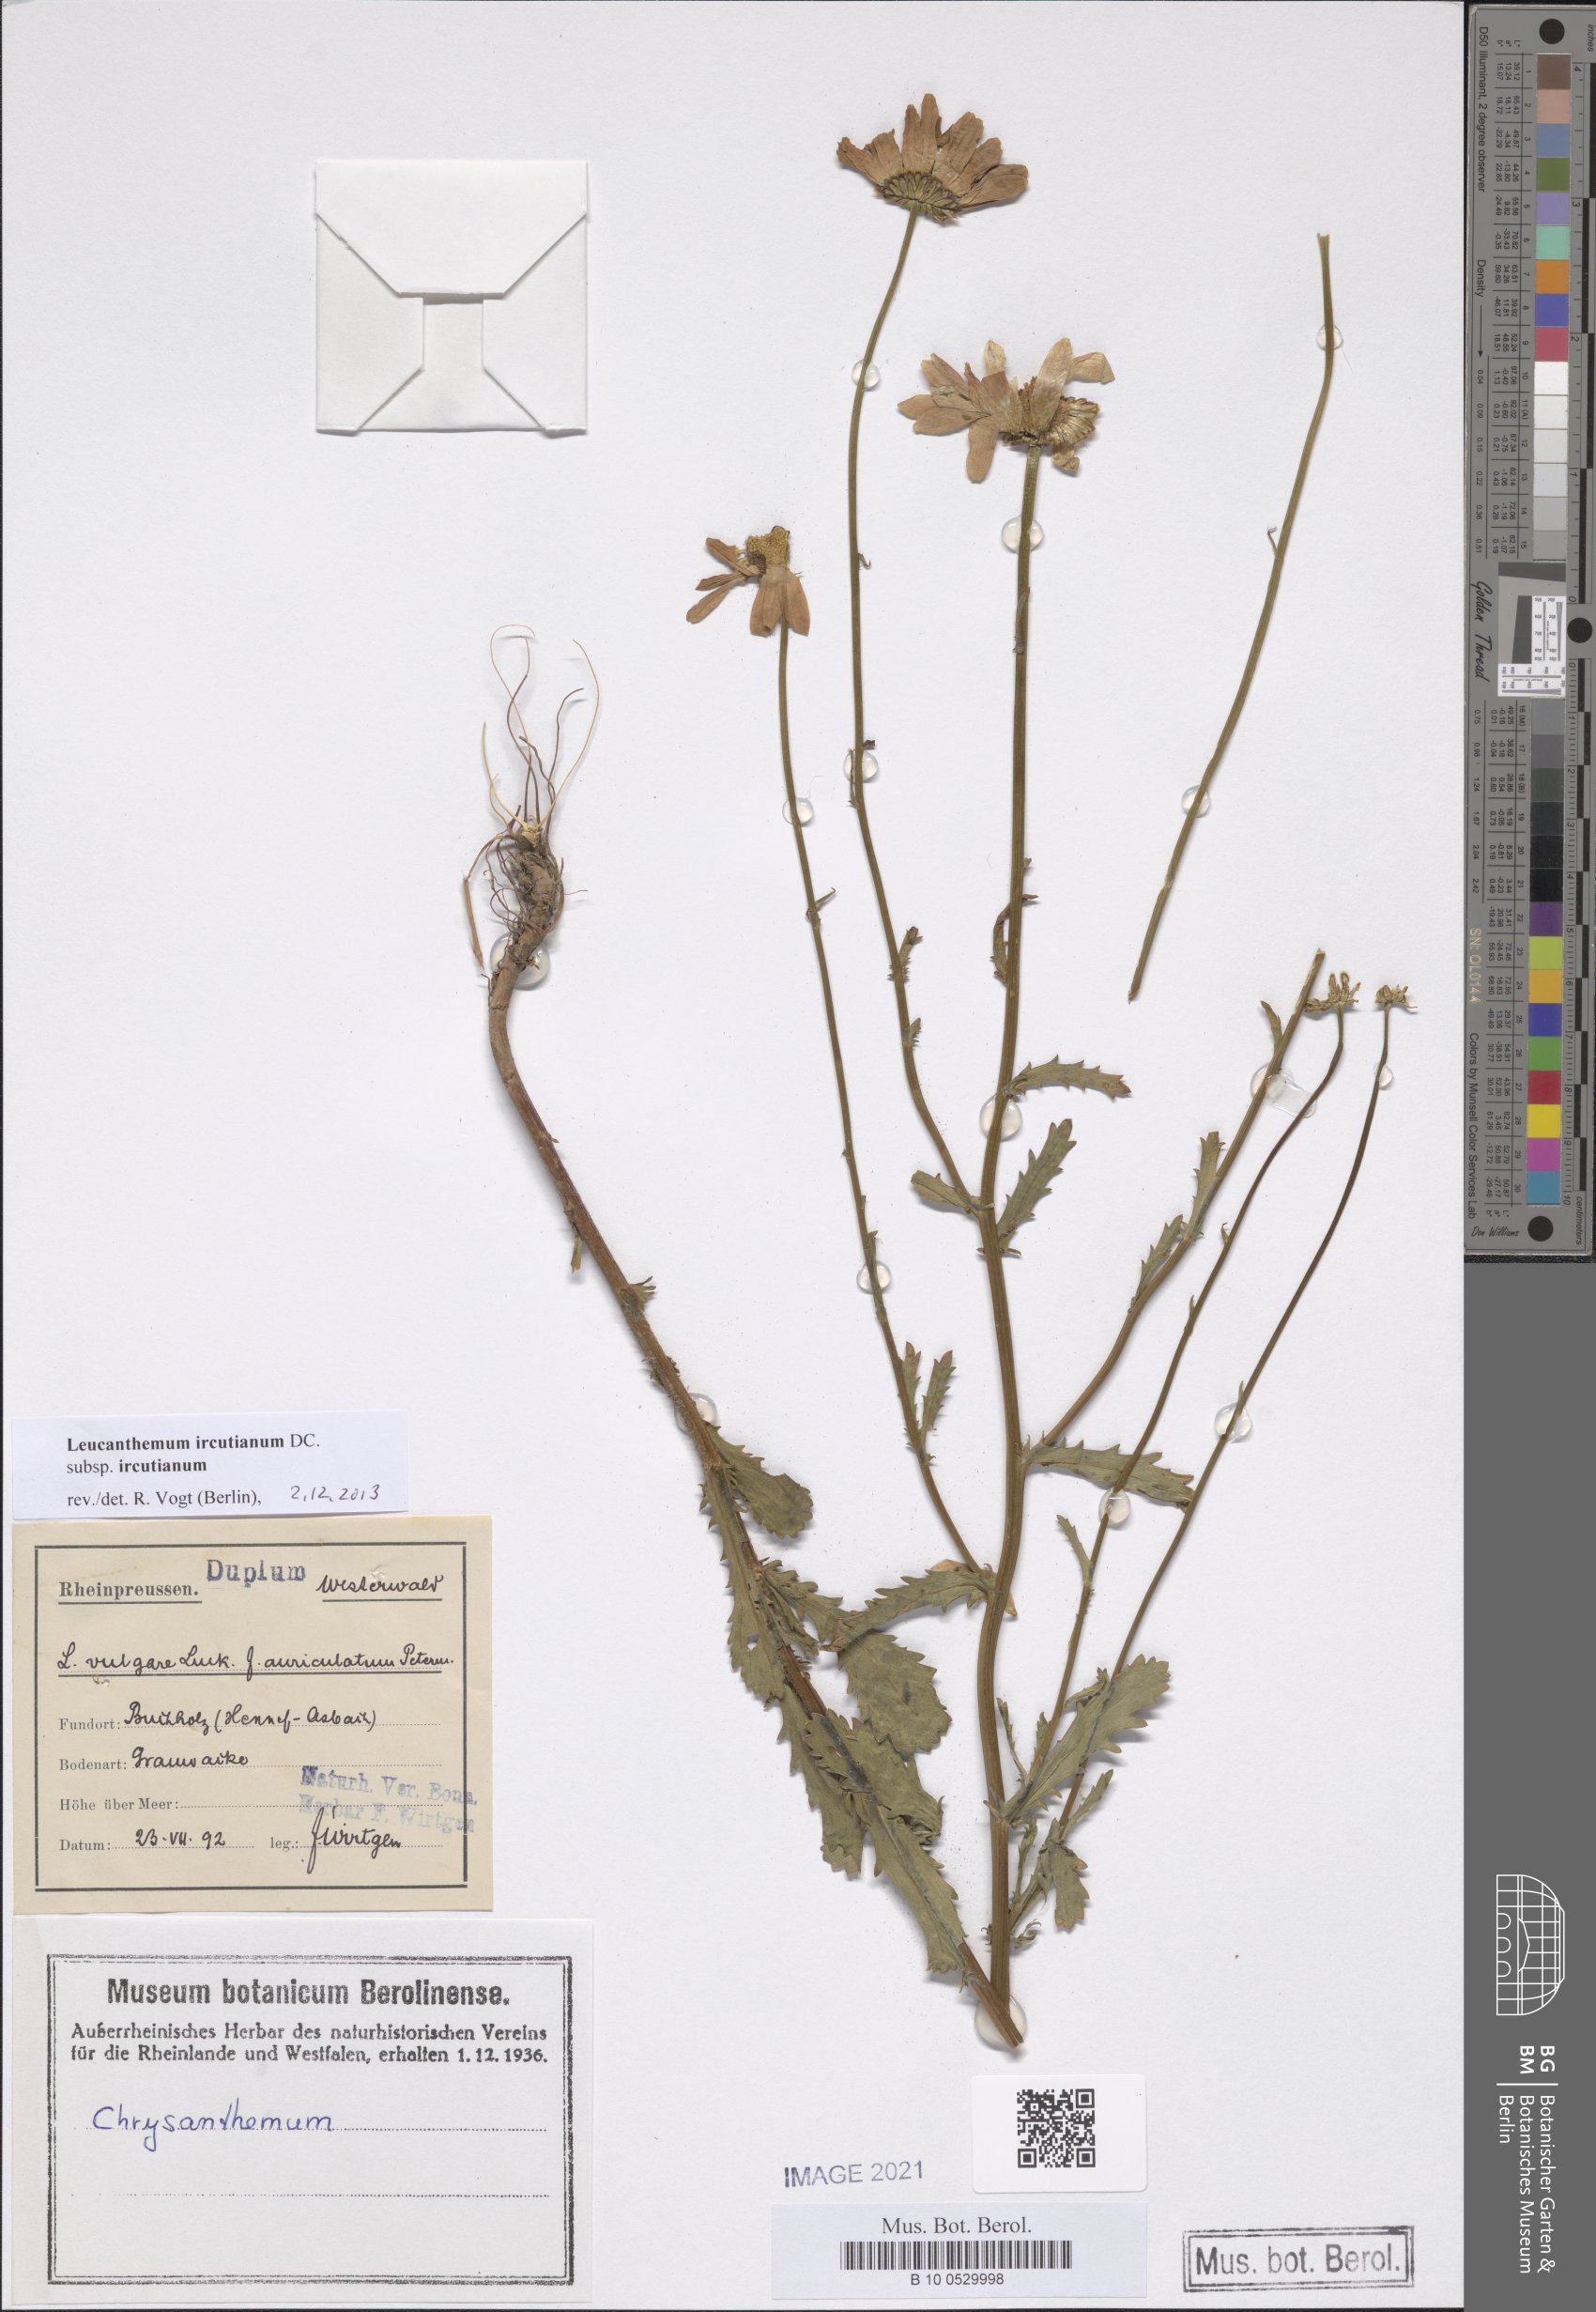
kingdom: Plantae
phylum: Tracheophyta
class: Magnoliopsida
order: Asterales
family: Asteraceae
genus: Leucanthemum
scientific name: Leucanthemum ircutianum
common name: Daisy
